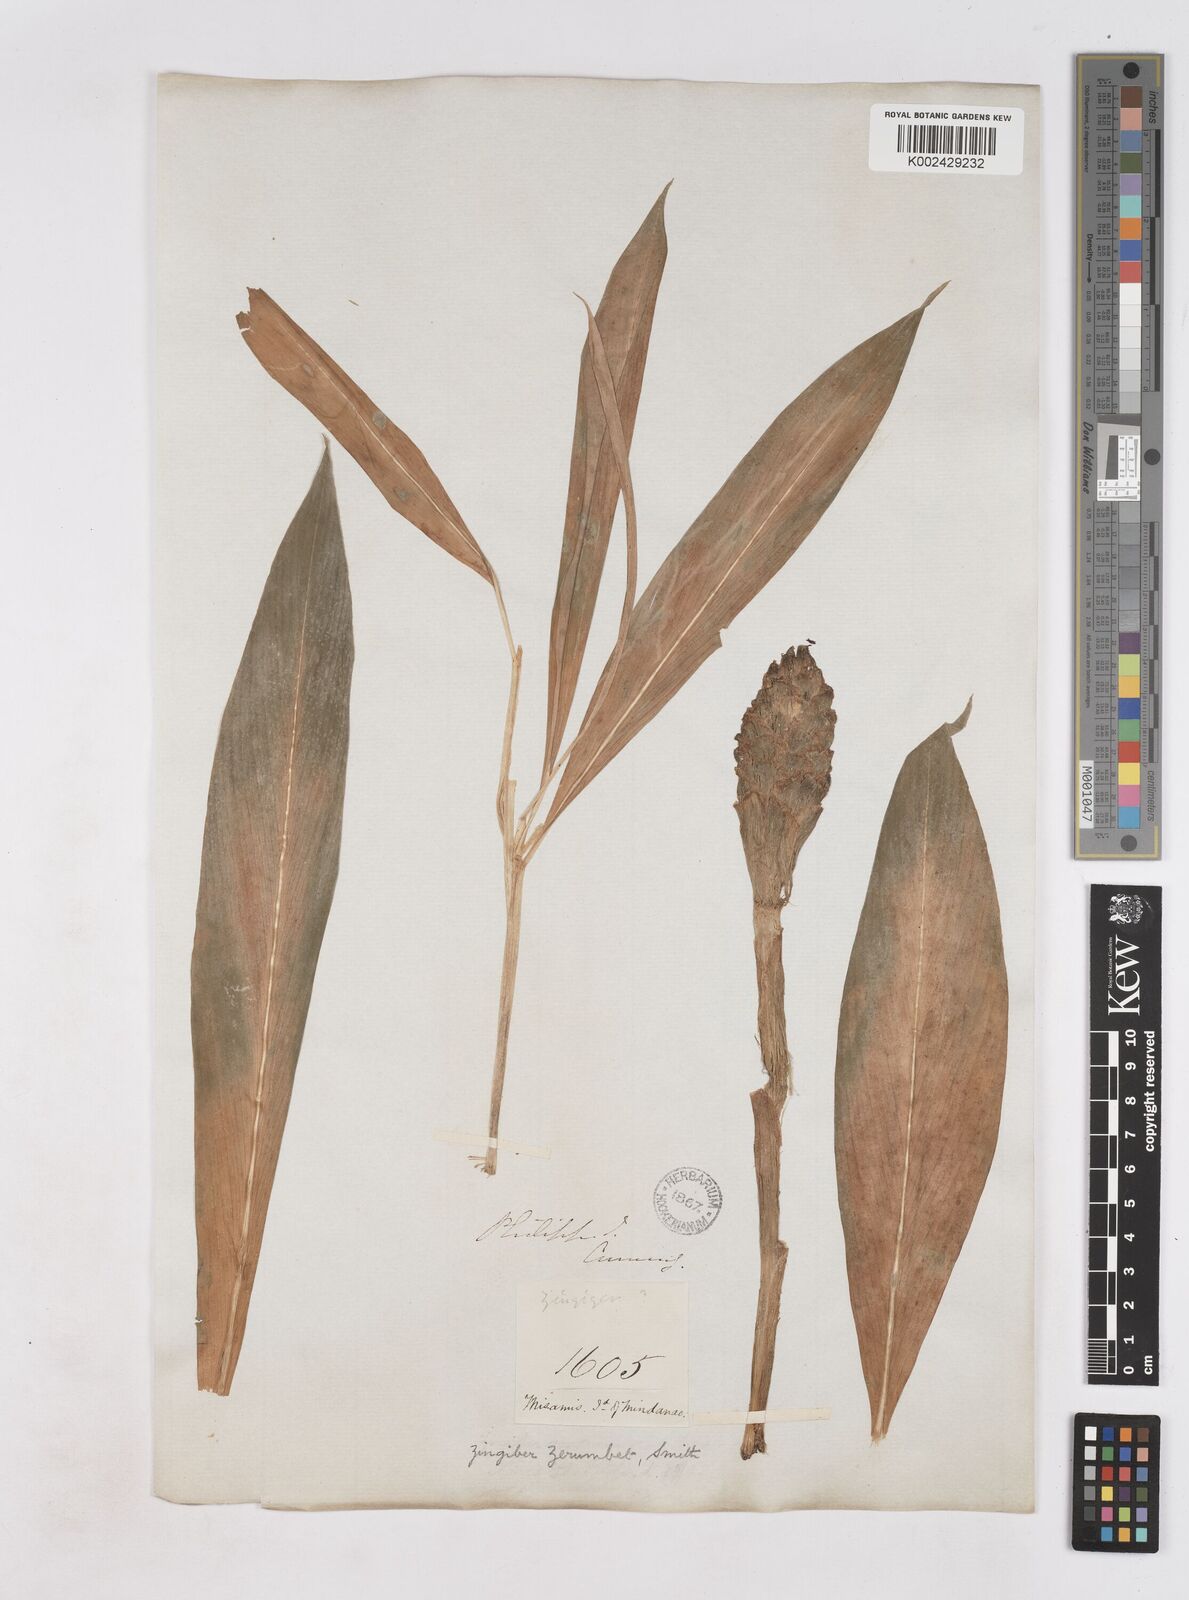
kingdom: Plantae
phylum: Tracheophyta
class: Liliopsida
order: Zingiberales
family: Zingiberaceae
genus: Zingiber
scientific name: Zingiber zerumbet
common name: Bitter ginger
